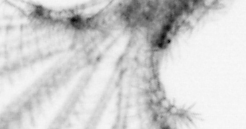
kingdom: Animalia
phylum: Arthropoda
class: Maxillopoda
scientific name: Maxillopoda
